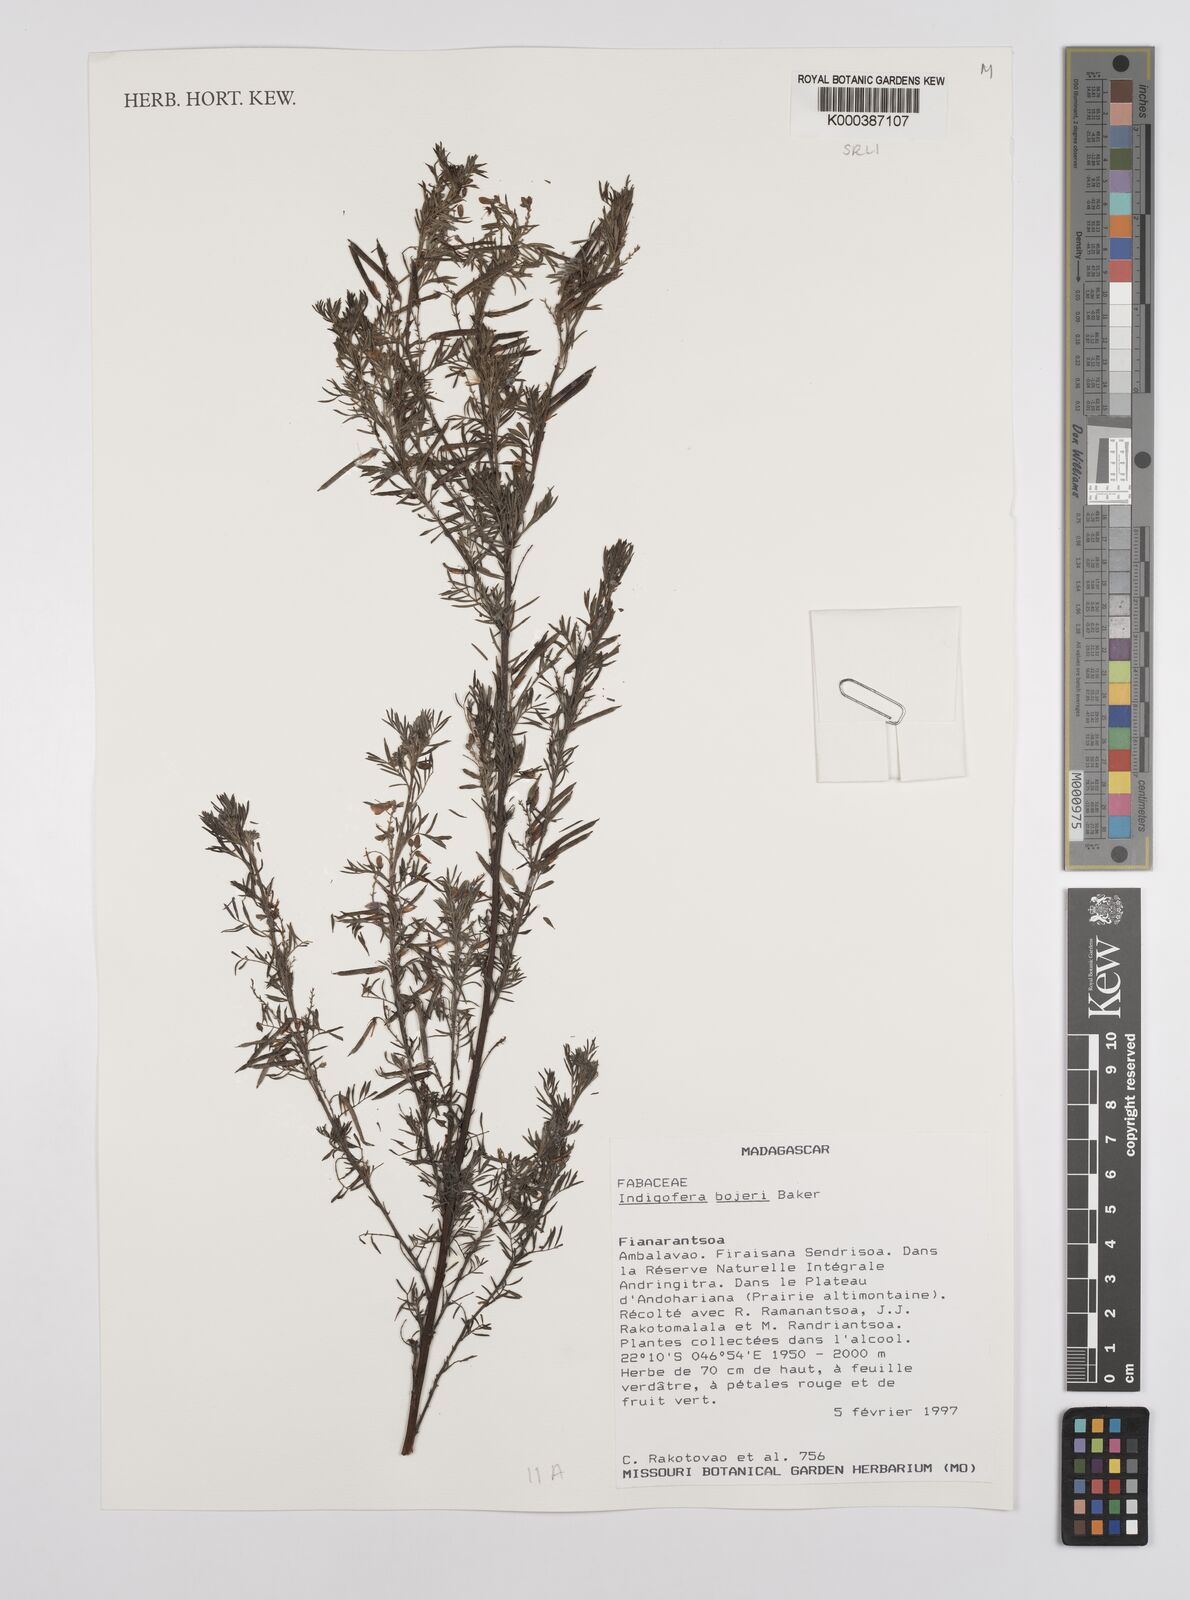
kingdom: Plantae
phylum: Tracheophyta
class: Magnoliopsida
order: Fabales
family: Fabaceae
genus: Indigofera
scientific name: Indigofera bojeri
